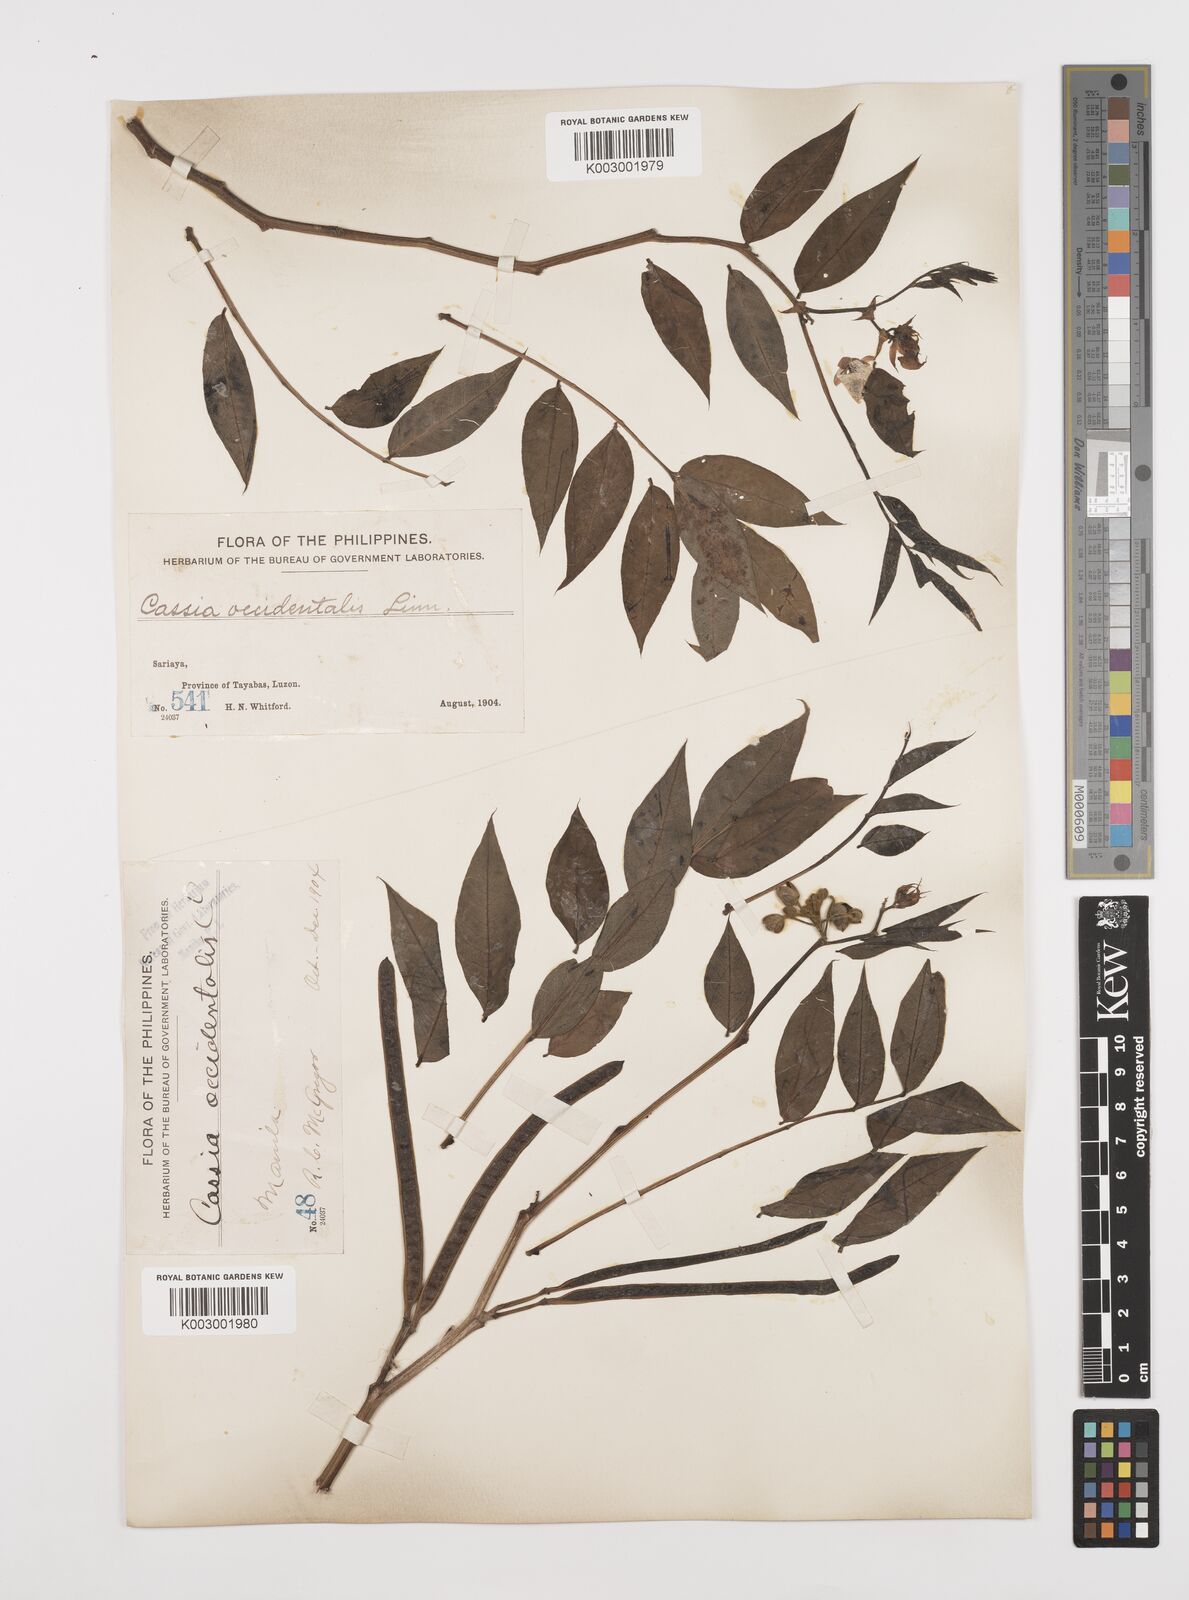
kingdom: Plantae
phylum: Tracheophyta
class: Magnoliopsida
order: Fabales
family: Fabaceae
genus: Senna
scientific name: Senna occidentalis
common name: Septicweed
